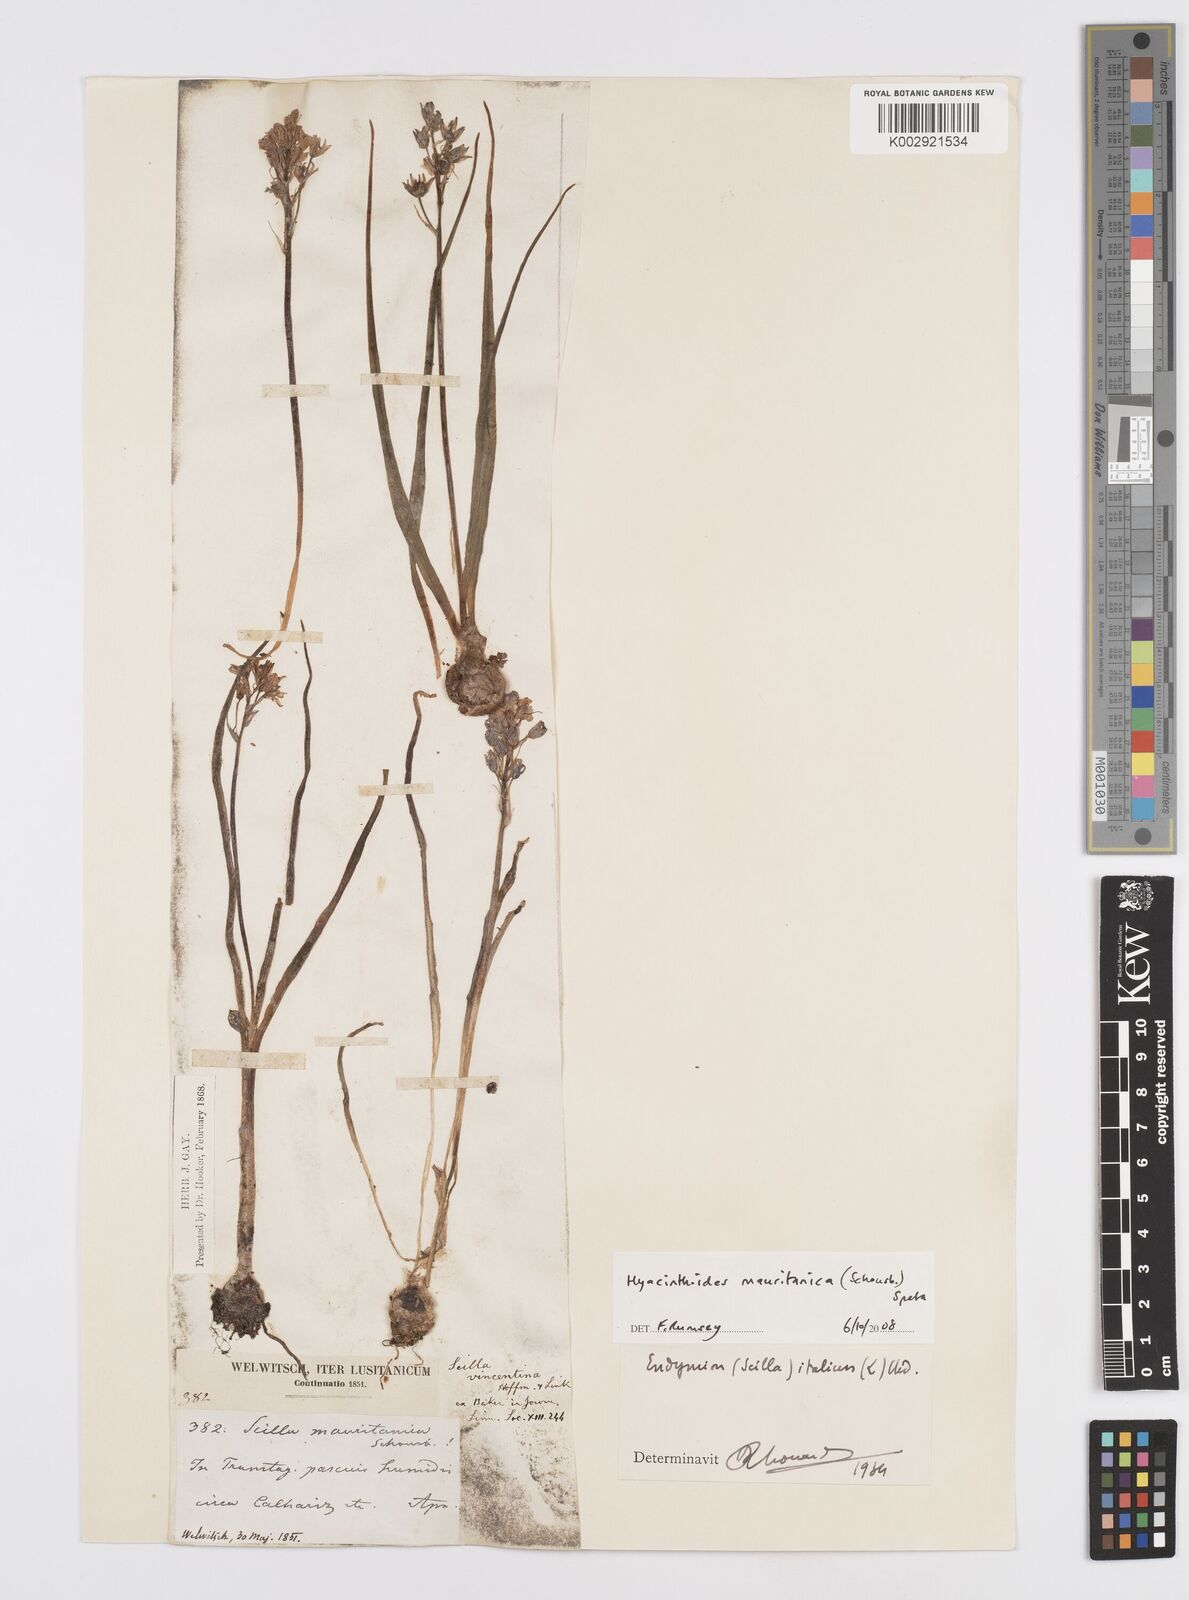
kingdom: Plantae
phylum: Tracheophyta
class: Liliopsida
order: Asparagales
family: Asparagaceae
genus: Hyacinthoides
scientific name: Hyacinthoides mauritanica
